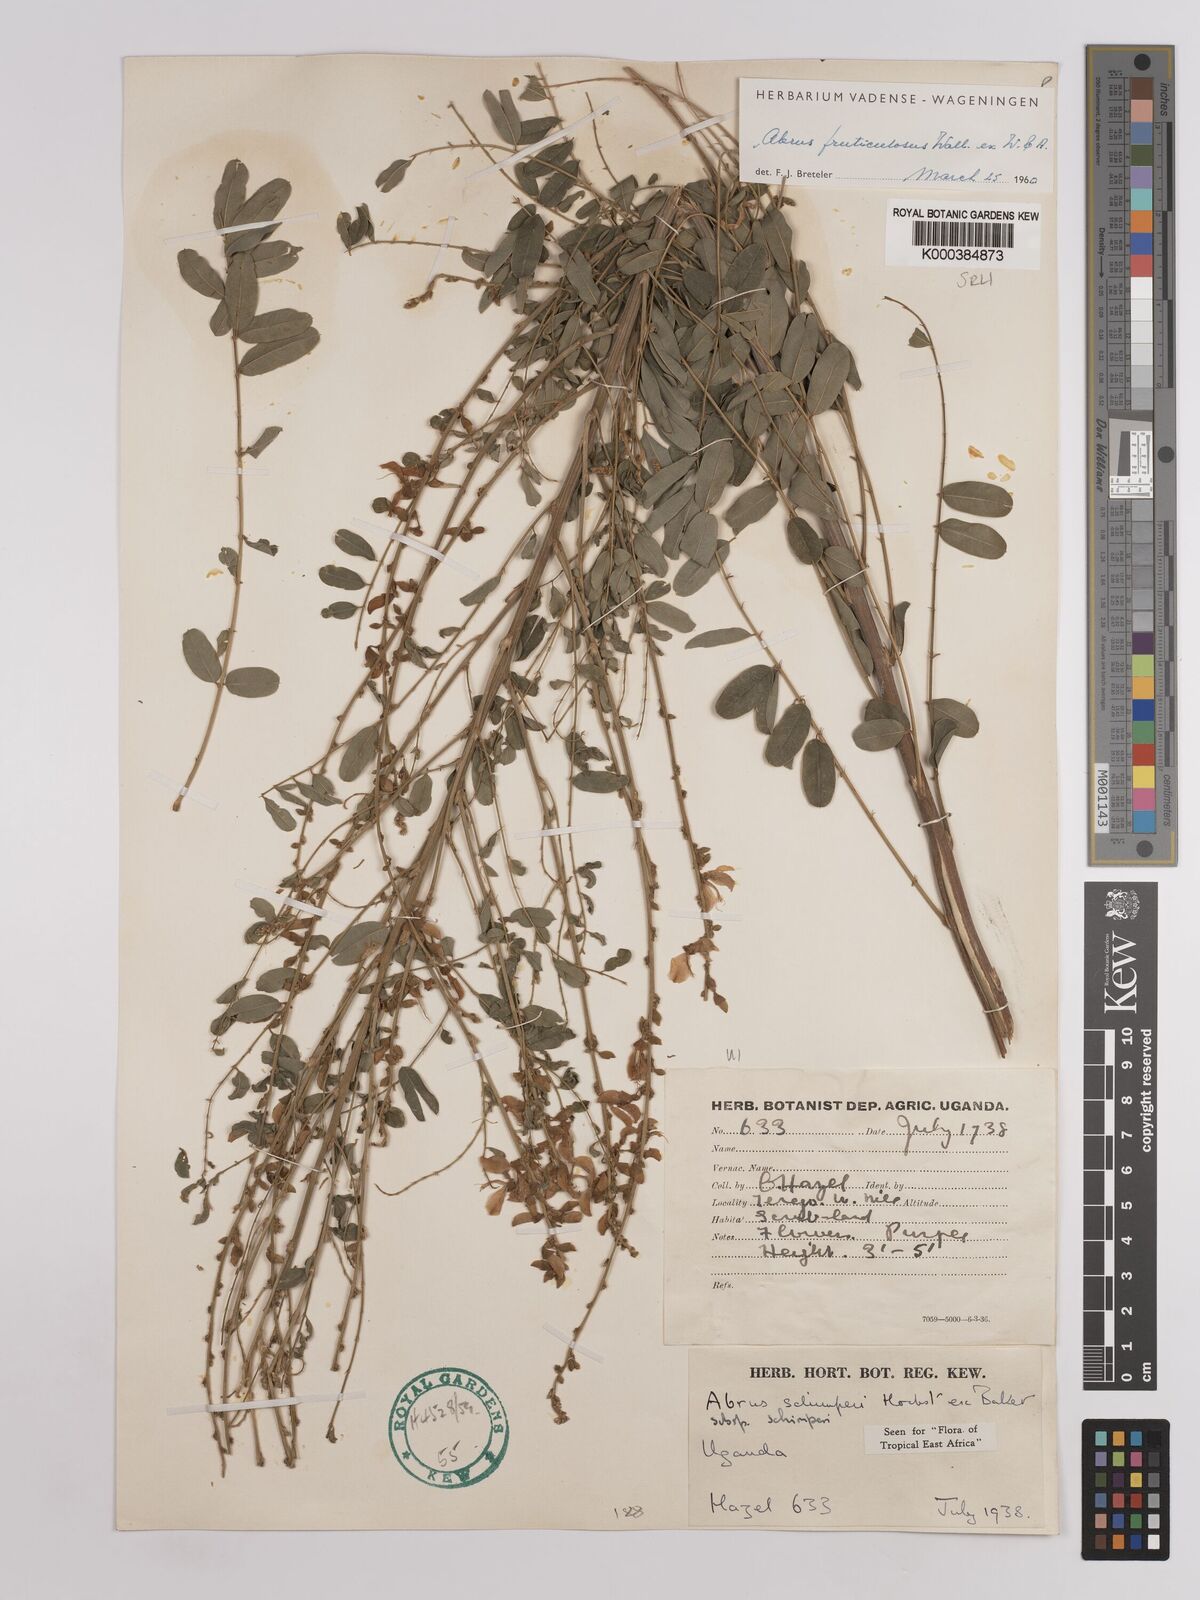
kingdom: Plantae
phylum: Tracheophyta
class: Magnoliopsida
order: Fabales
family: Fabaceae
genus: Abrus
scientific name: Abrus fruticulosus
